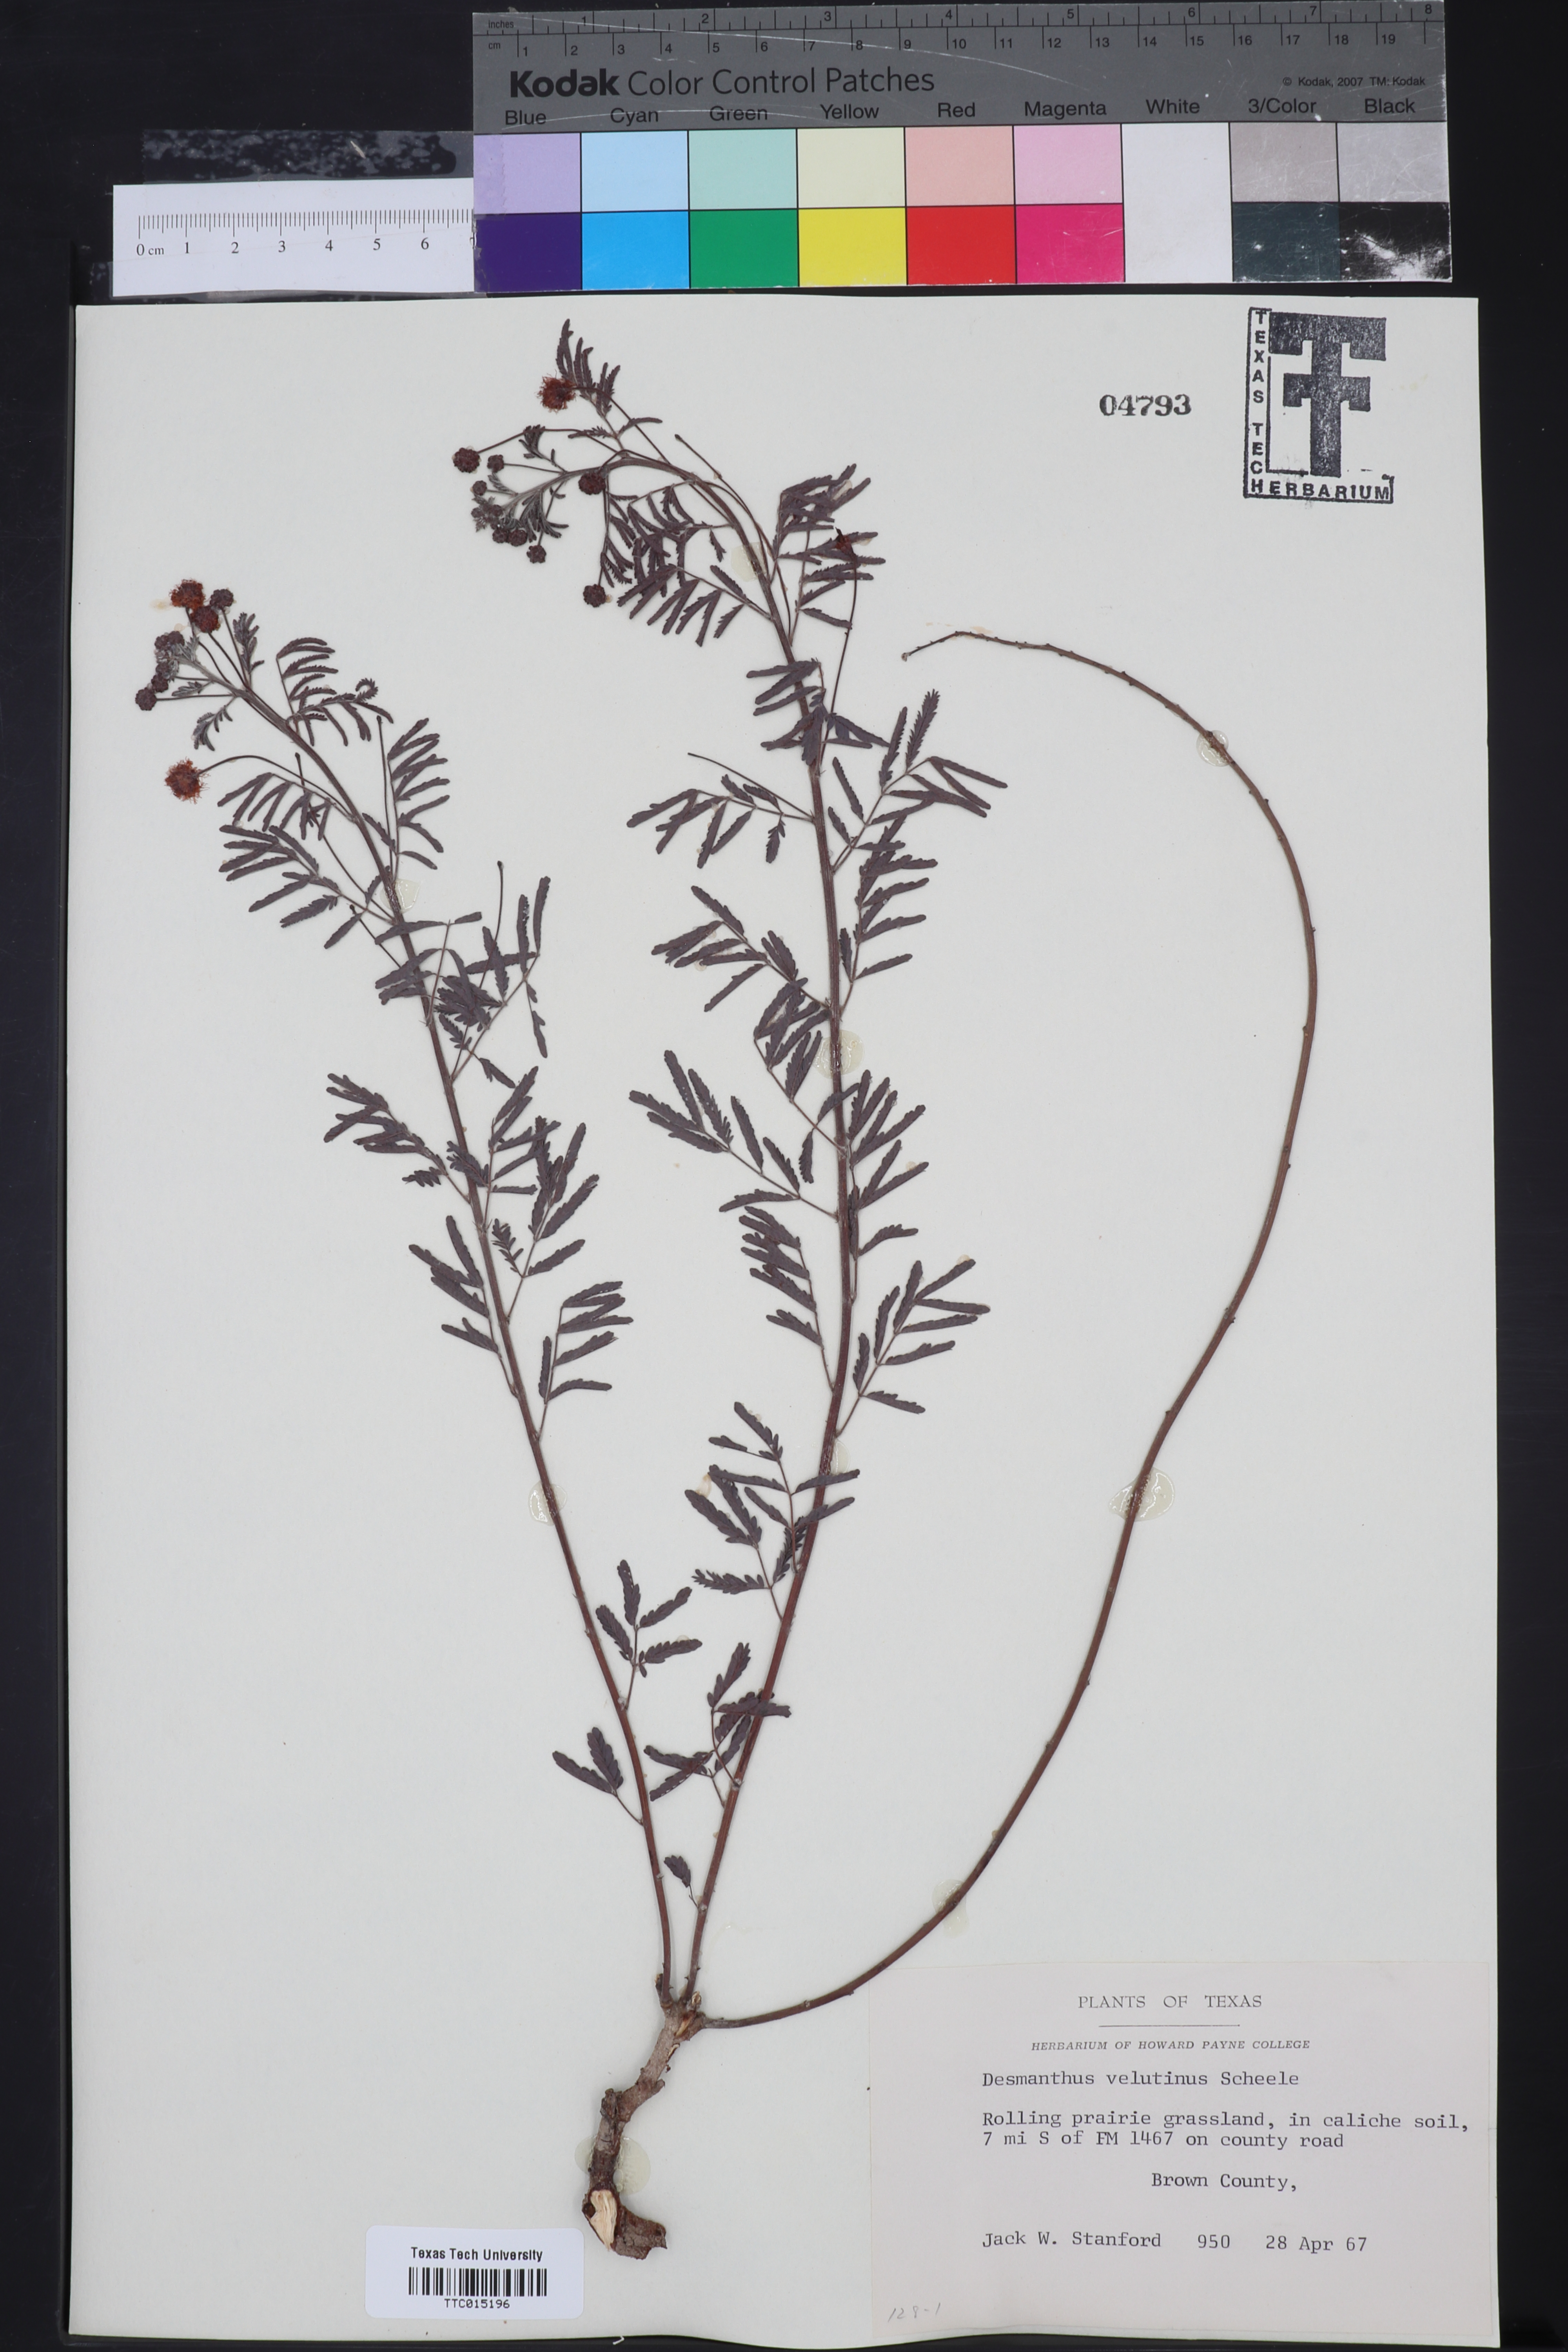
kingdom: Plantae
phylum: Tracheophyta
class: Magnoliopsida
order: Fabales
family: Fabaceae
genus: Desmanthus
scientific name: Desmanthus velutinus
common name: Velvet bundle-flower
